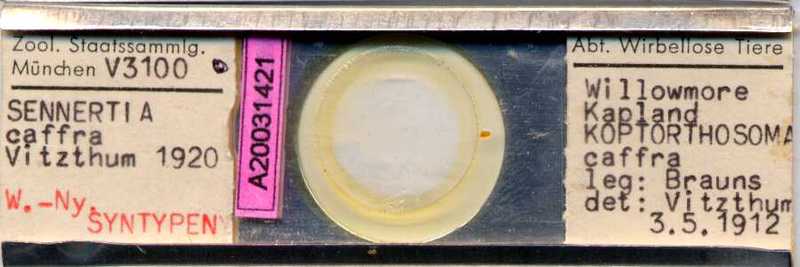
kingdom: Animalia
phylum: Arthropoda
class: Arachnida
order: Sarcoptiformes
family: Chaetodactylidae
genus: Sennertia
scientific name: Sennertia caffra
